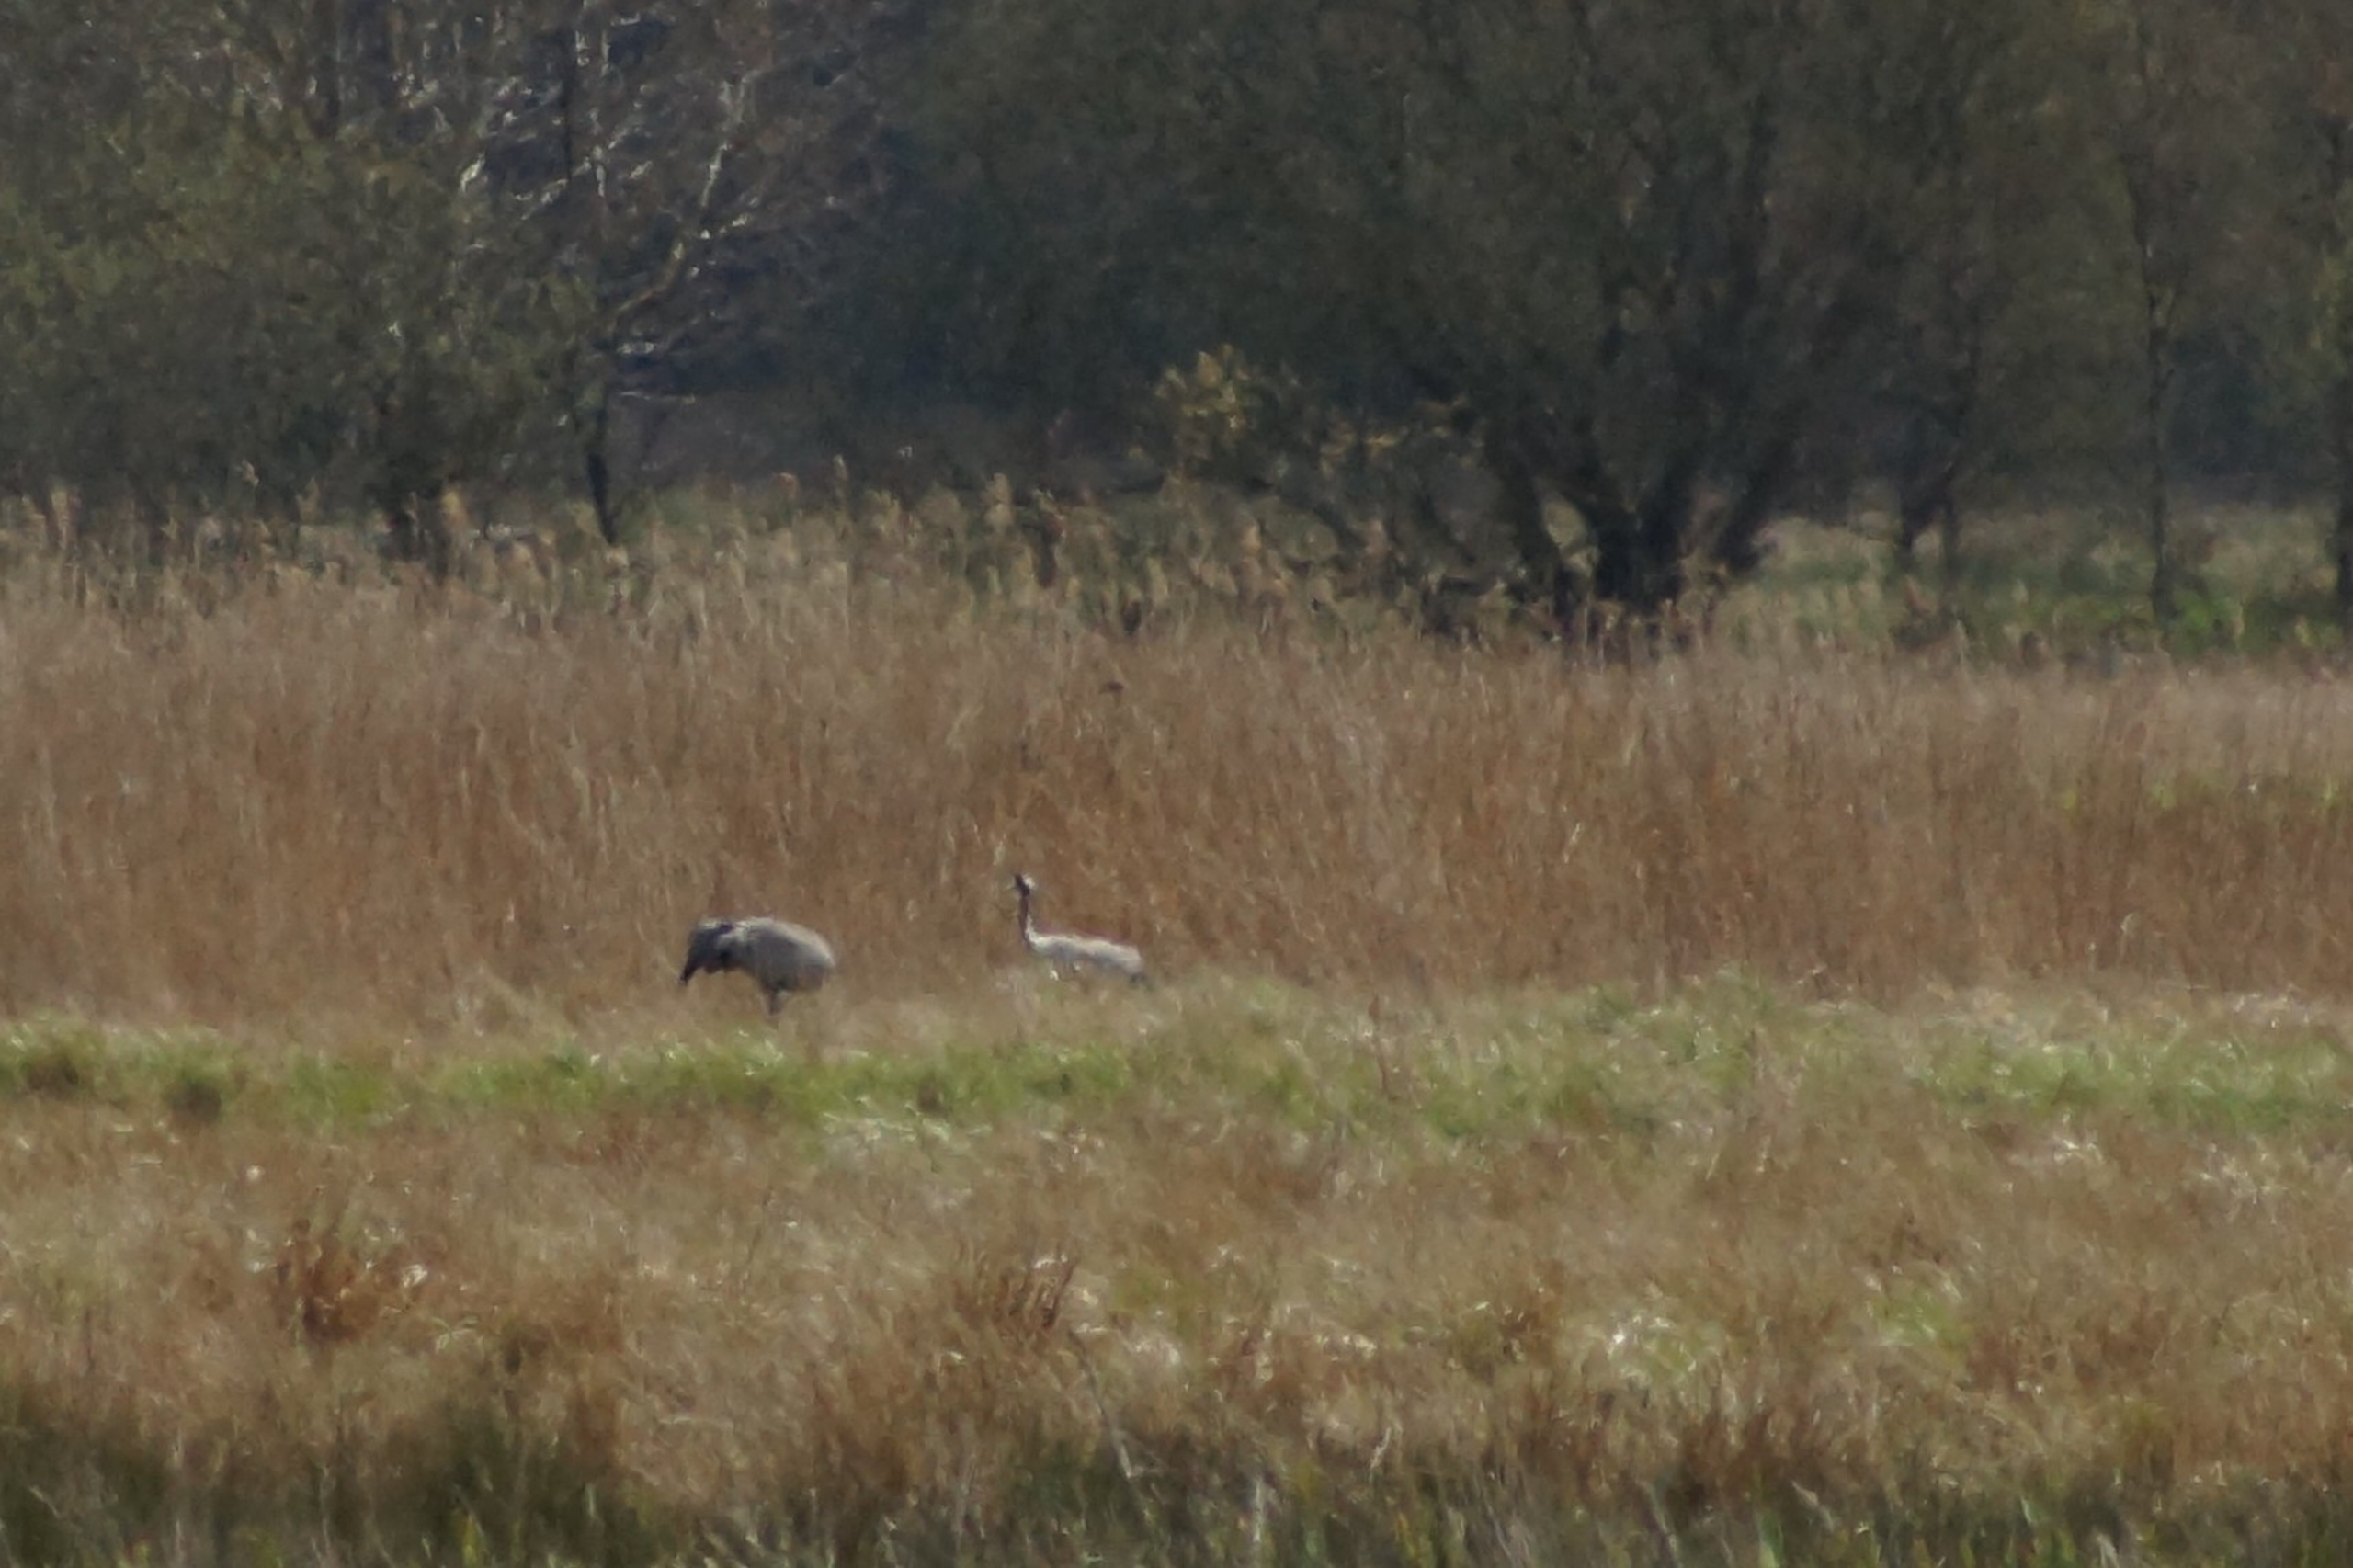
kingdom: Animalia
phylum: Chordata
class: Aves
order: Gruiformes
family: Gruidae
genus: Grus
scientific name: Grus grus
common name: Trane
